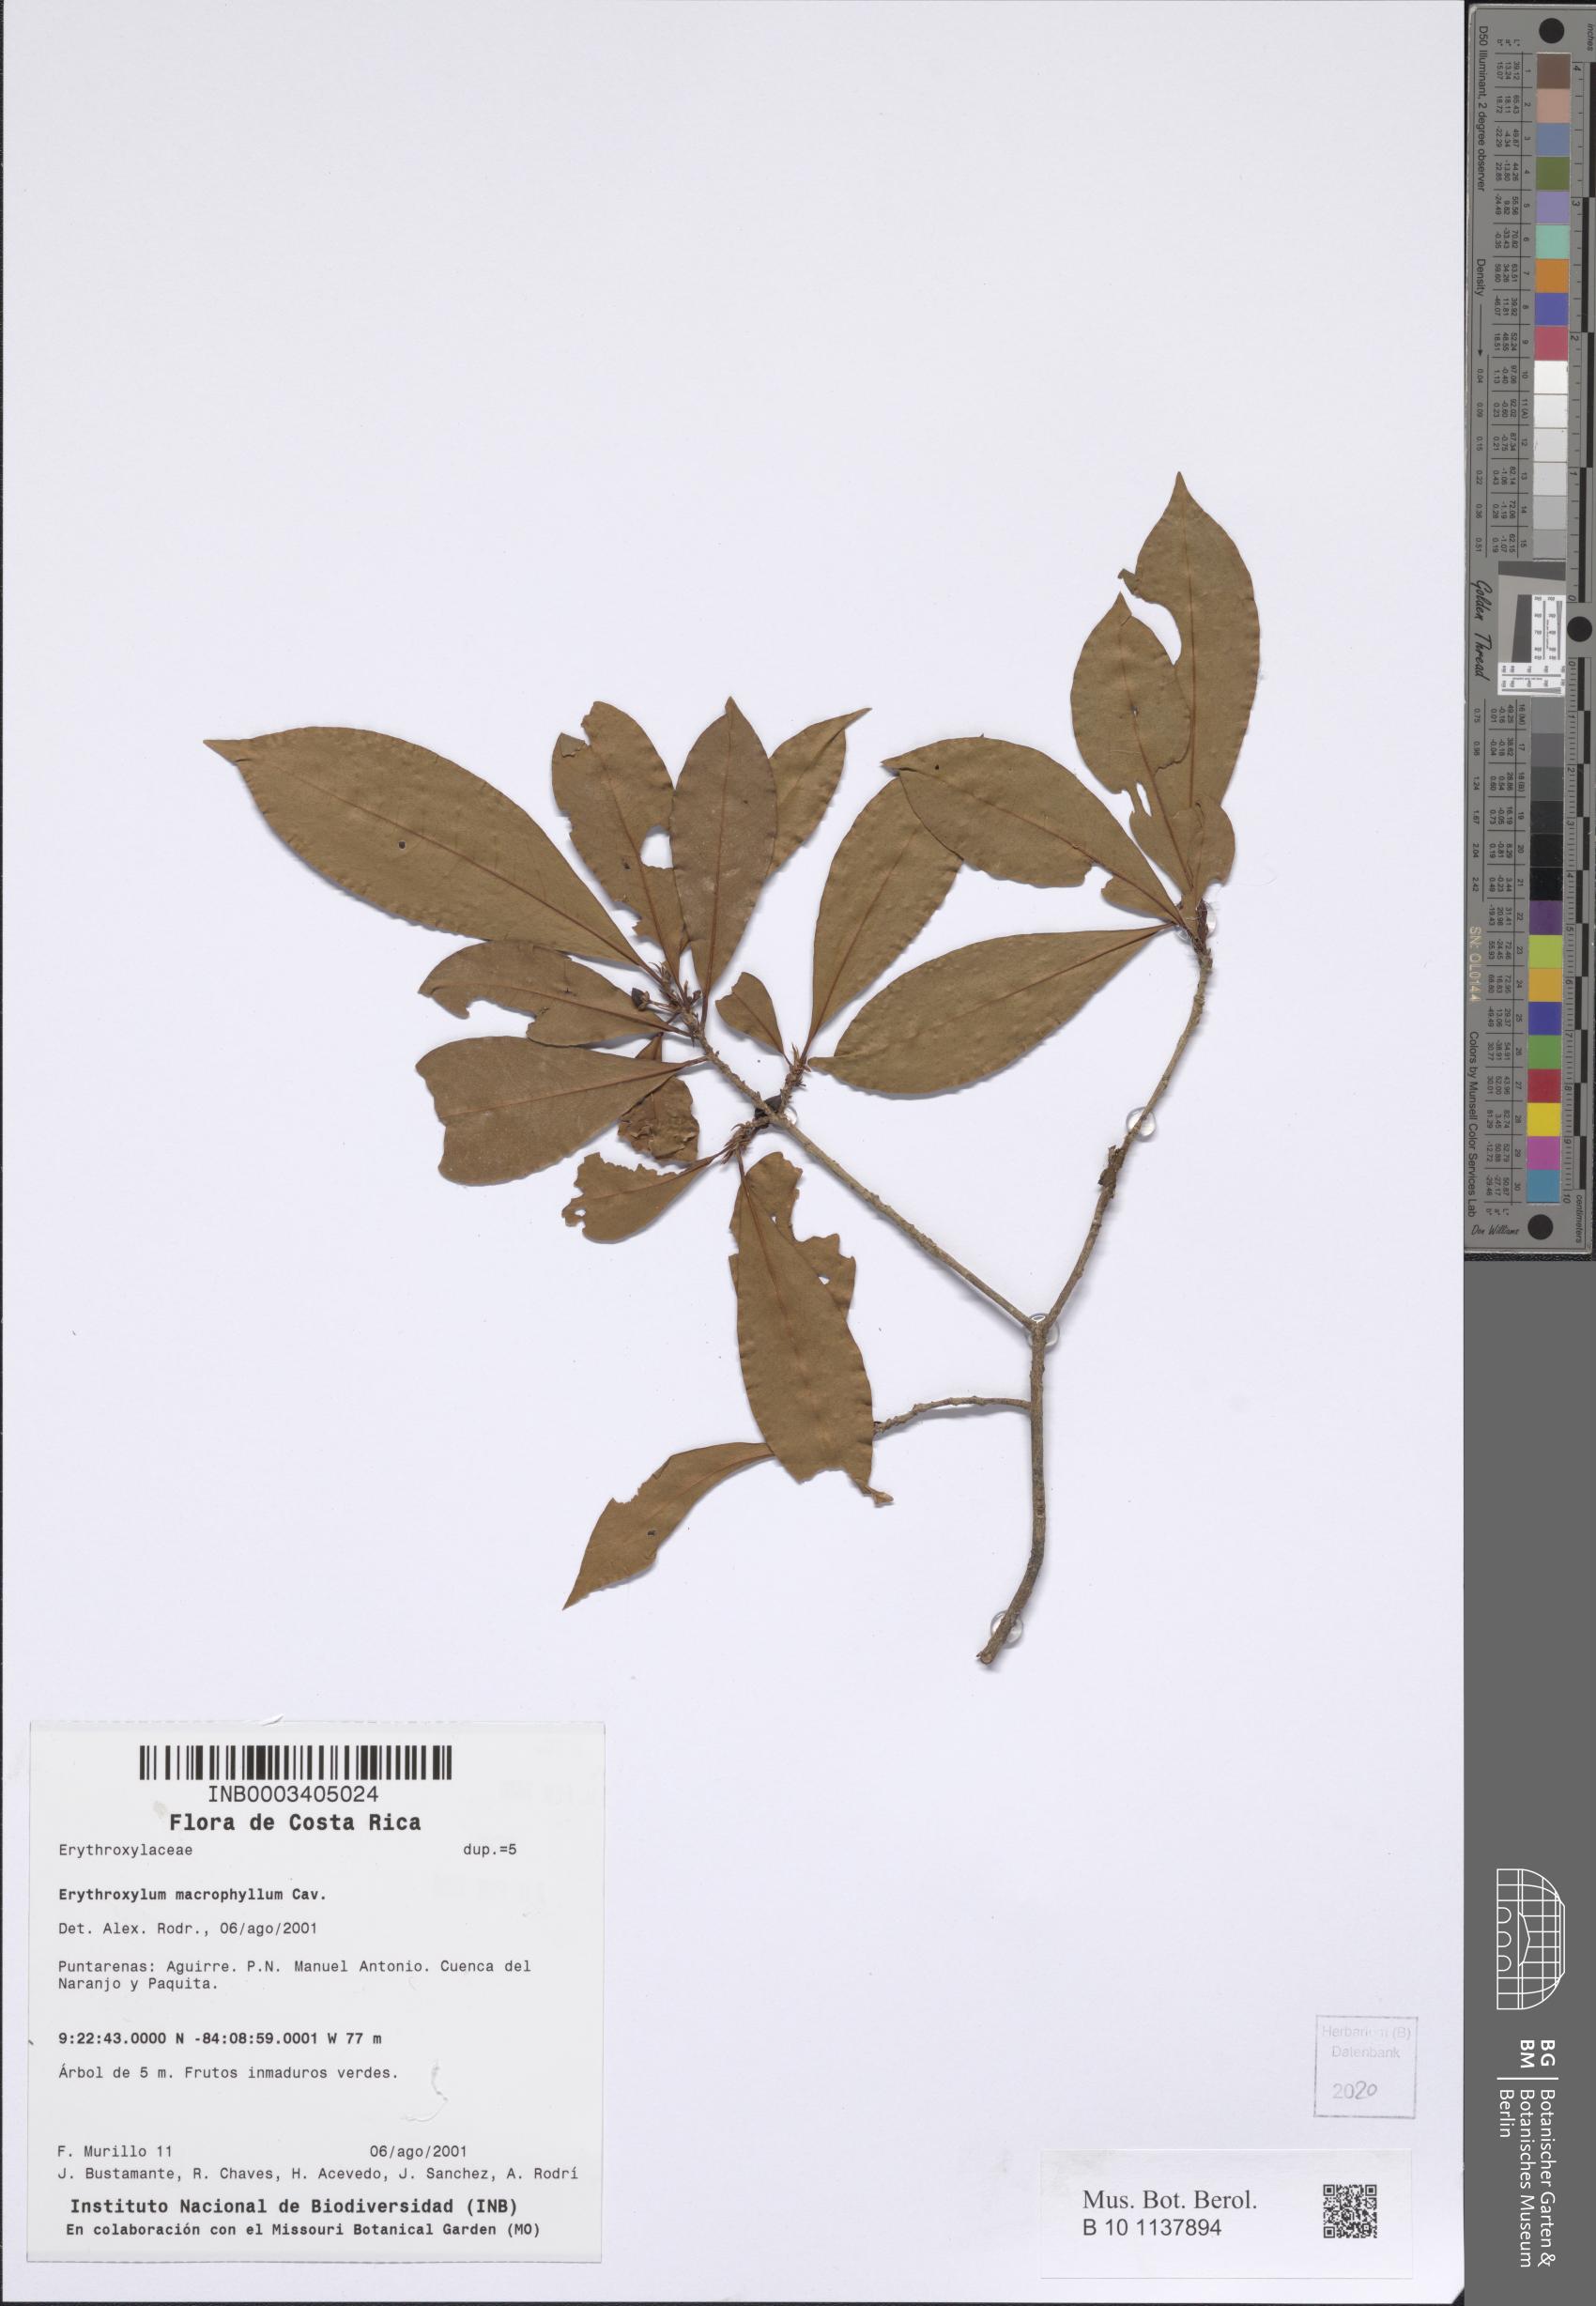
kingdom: Plantae
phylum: Tracheophyta
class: Magnoliopsida
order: Malpighiales
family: Erythroxylaceae
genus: Erythroxylum
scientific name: Erythroxylum macrophyllum
